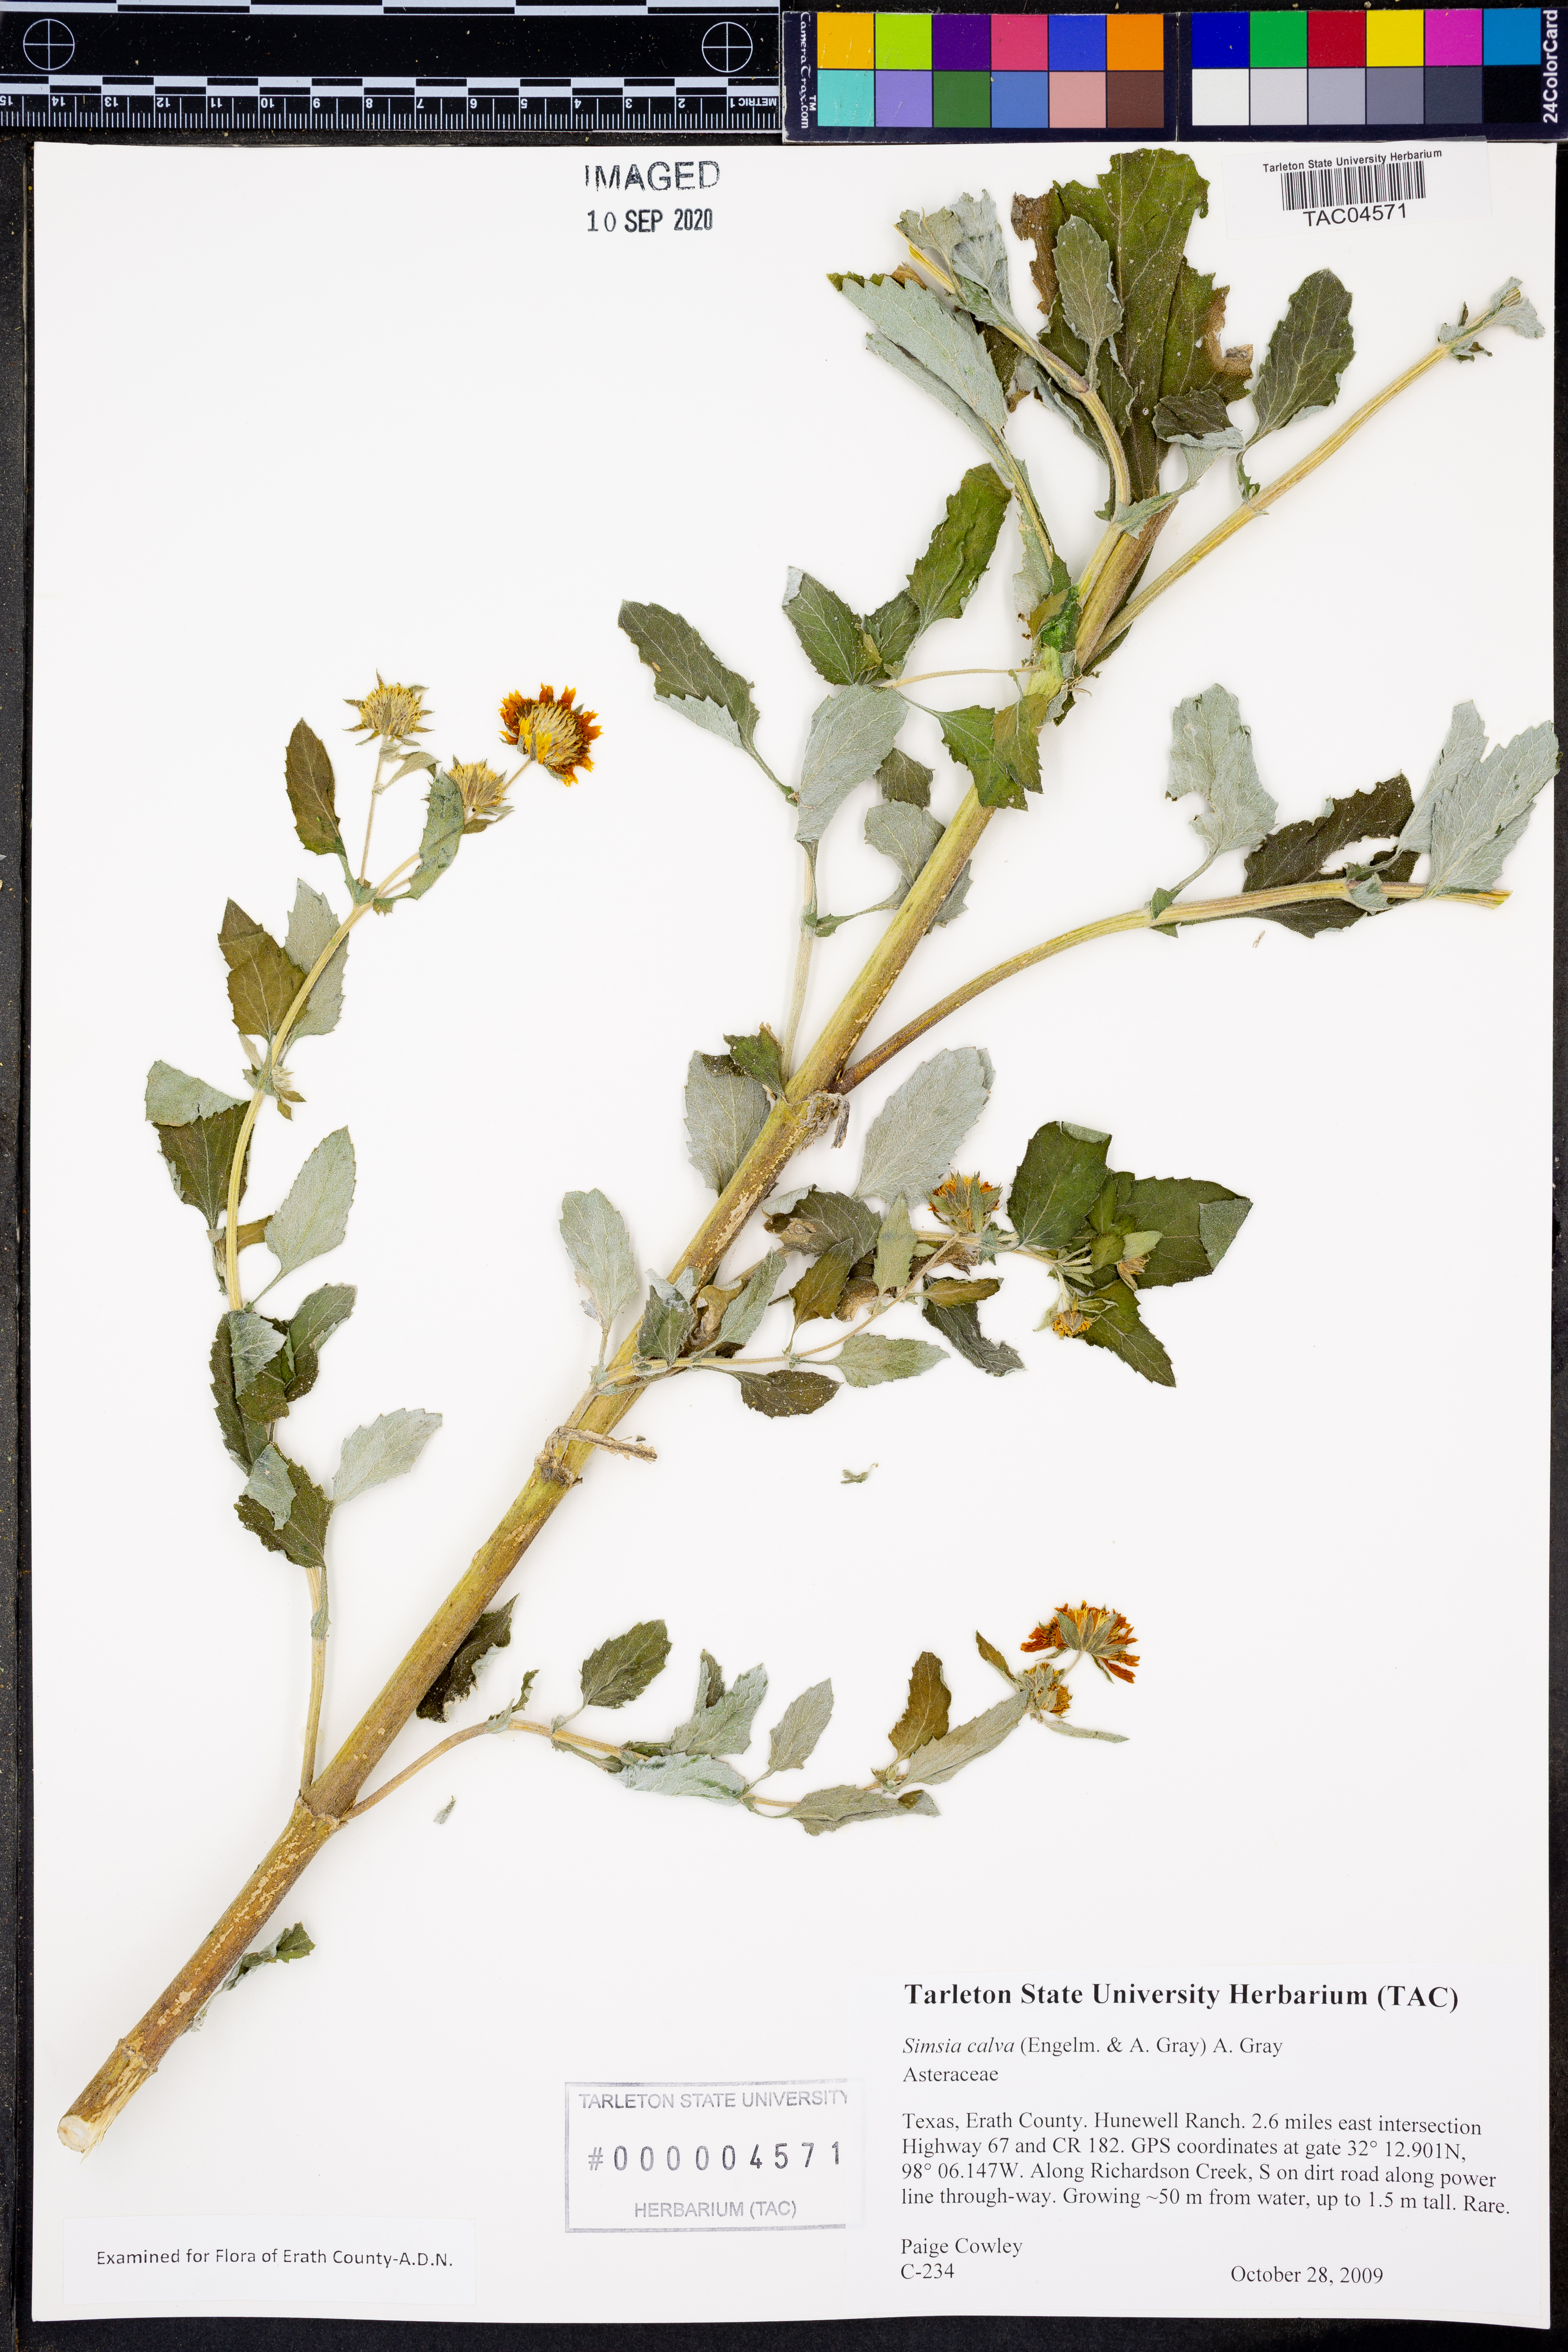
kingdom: Plantae
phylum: Tracheophyta
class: Magnoliopsida
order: Asterales
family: Asteraceae
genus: Simsia
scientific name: Simsia calva
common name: Awnless bush-sunflower
